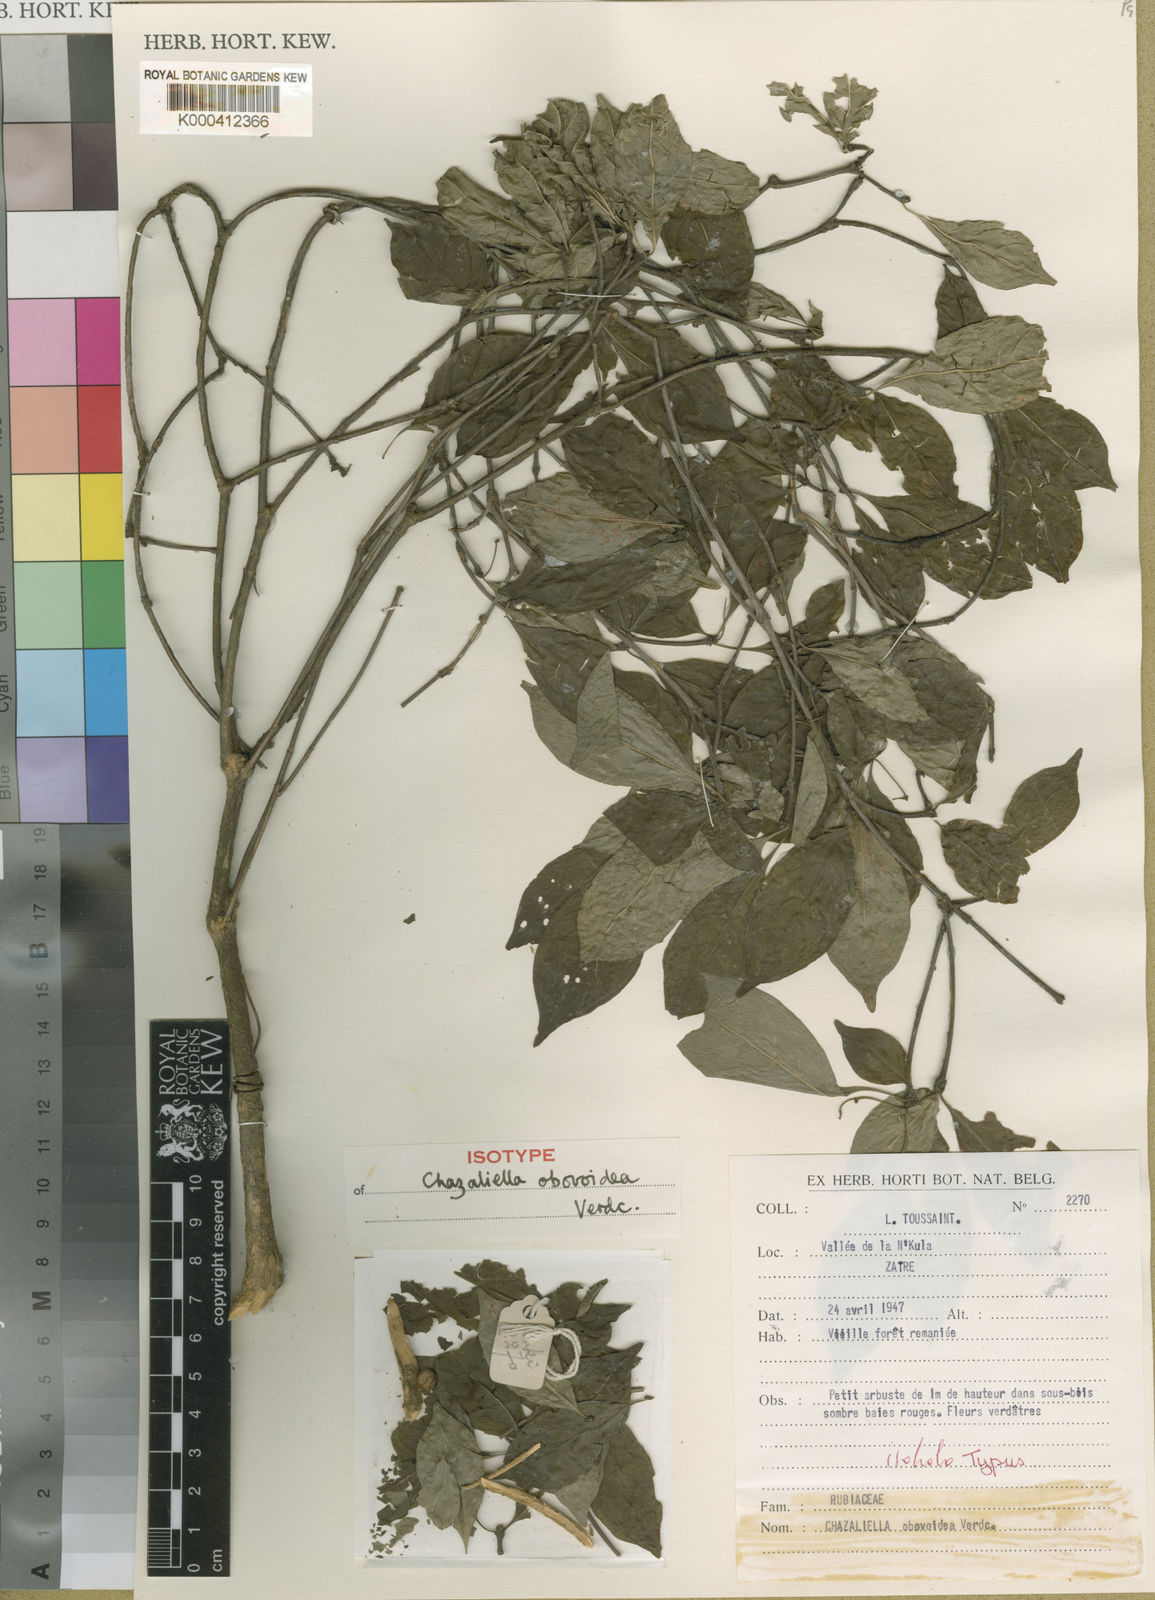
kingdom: Plantae
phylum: Tracheophyta
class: Magnoliopsida
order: Gentianales
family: Rubiaceae
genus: Eumachia
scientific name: Eumachia obovoidea
